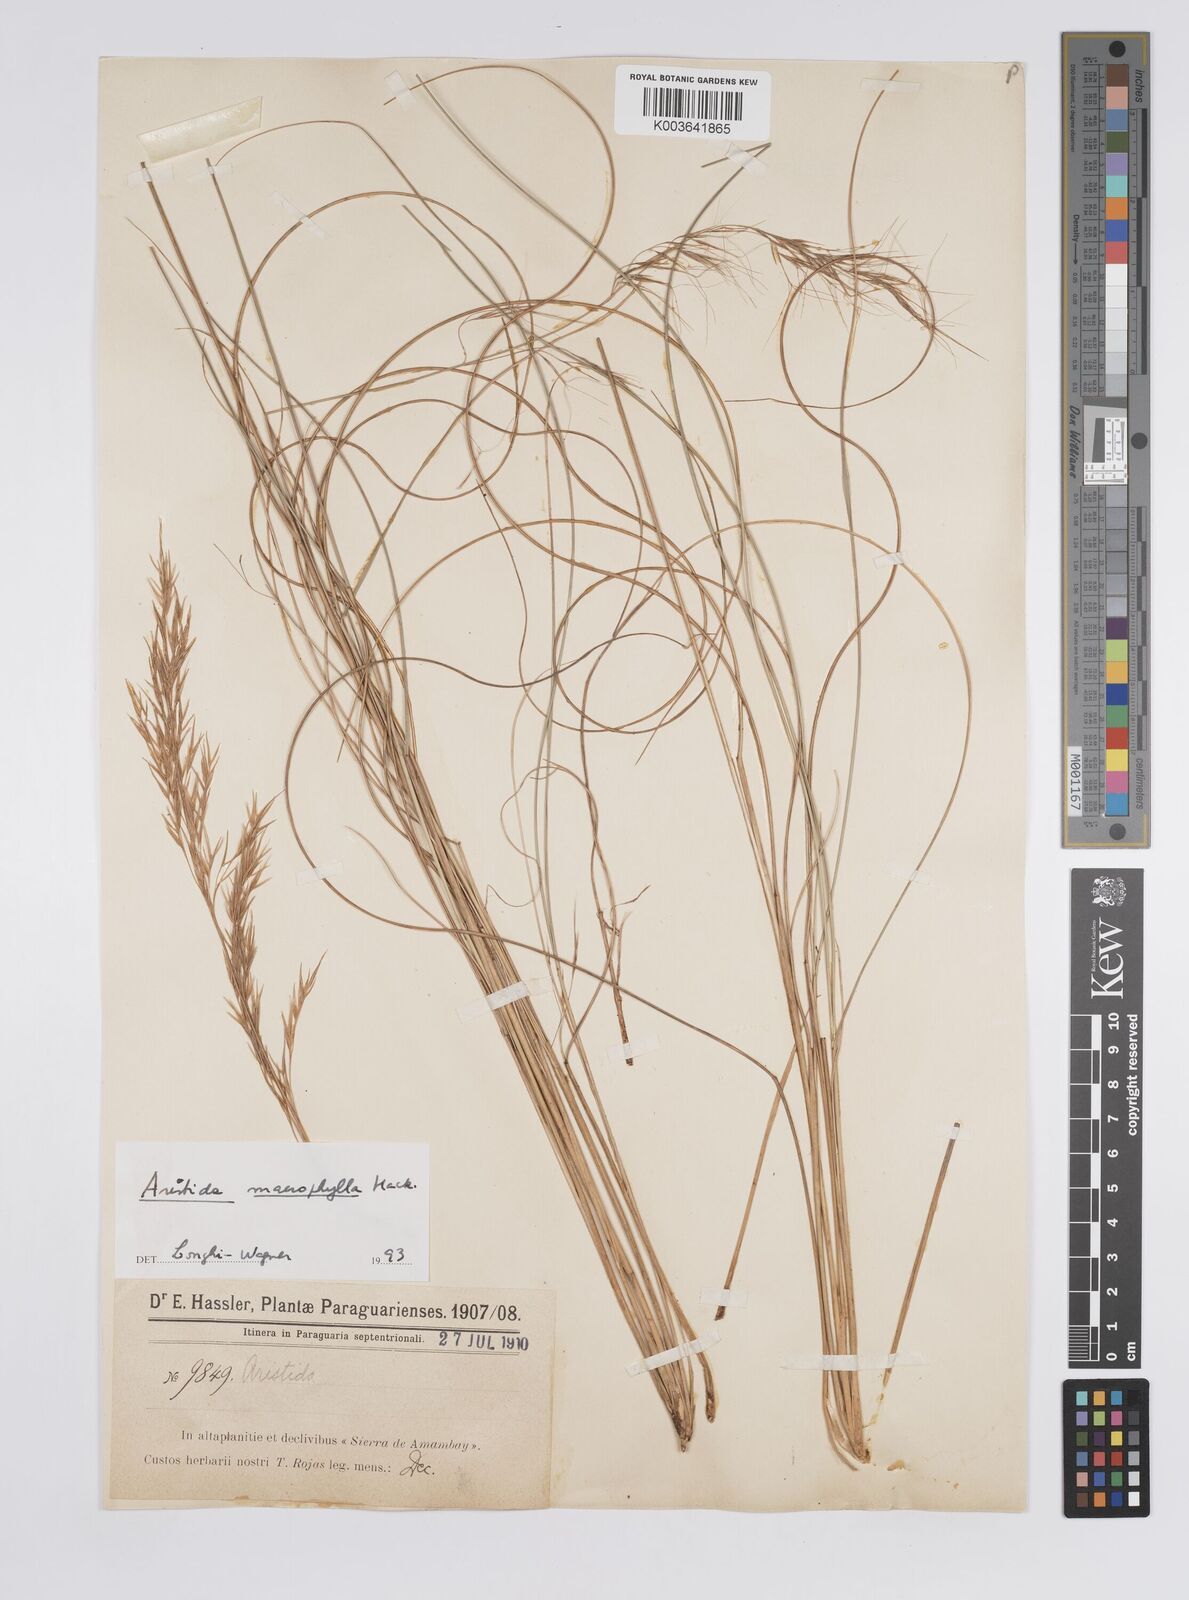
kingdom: Plantae
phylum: Tracheophyta
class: Liliopsida
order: Poales
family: Poaceae
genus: Aristida
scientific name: Aristida macrophylla
